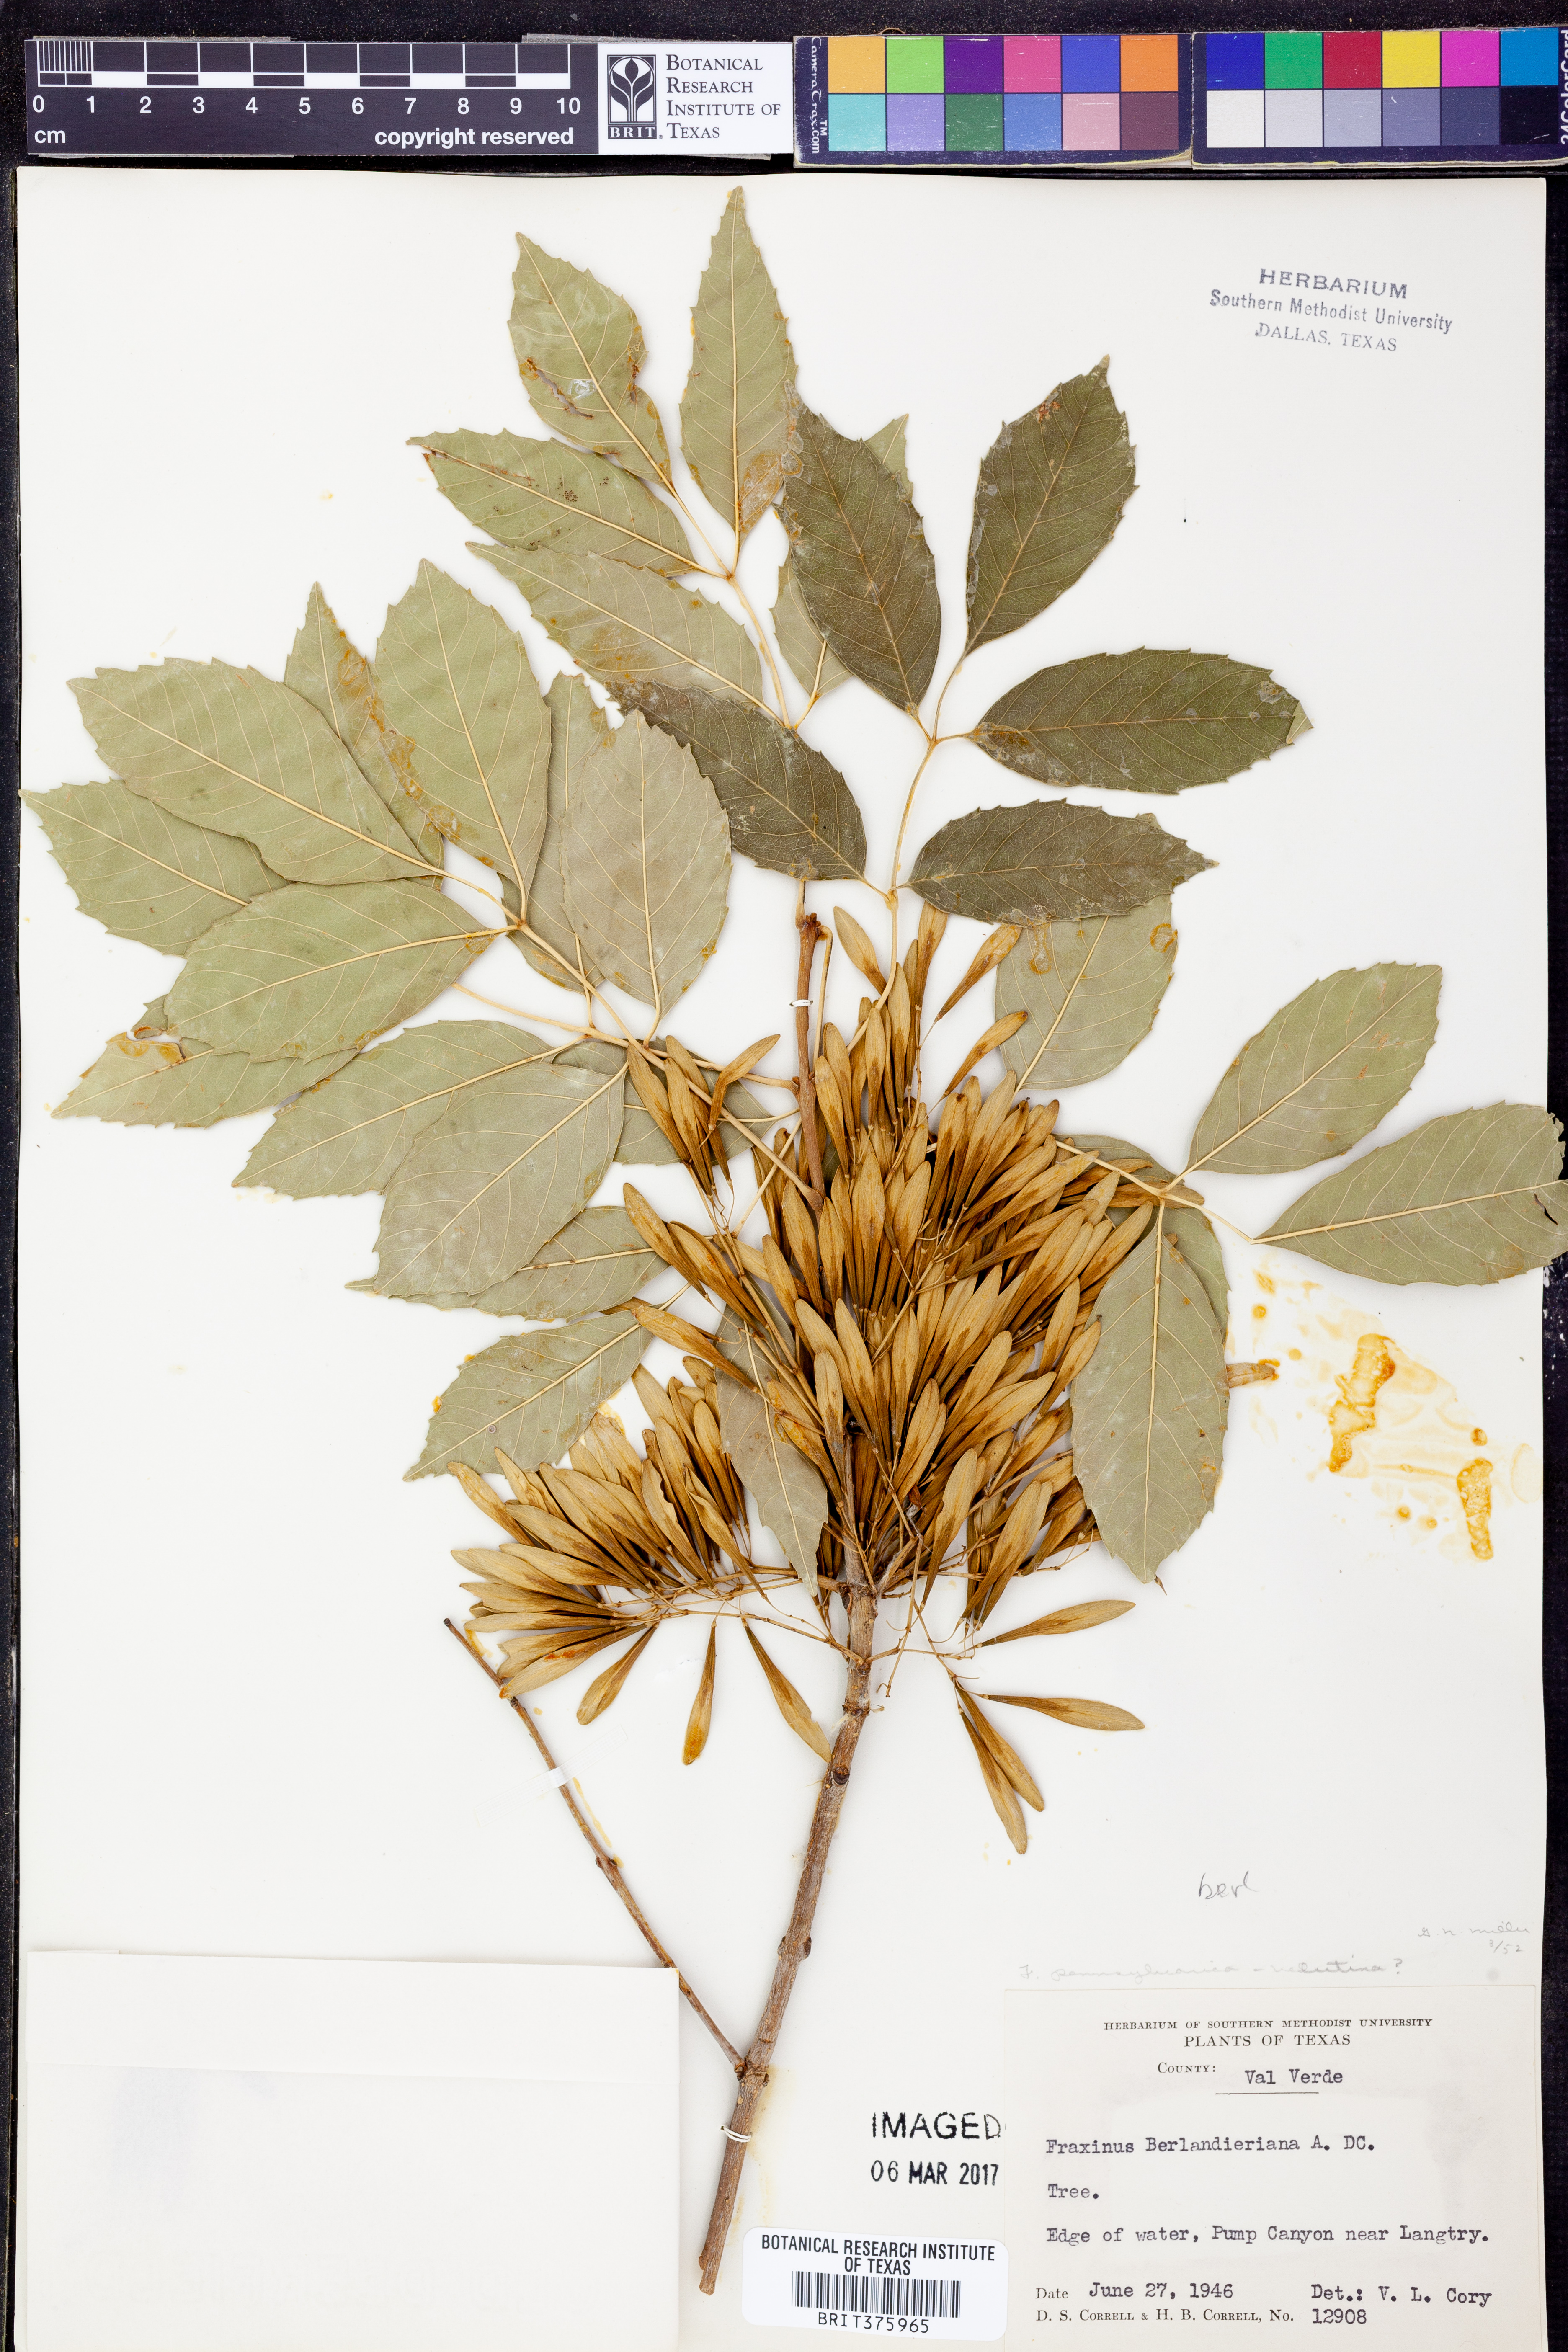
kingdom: Plantae
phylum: Tracheophyta
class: Magnoliopsida
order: Lamiales
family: Oleaceae
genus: Fraxinus
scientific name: Fraxinus berlandieriana
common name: Berlandier ash
